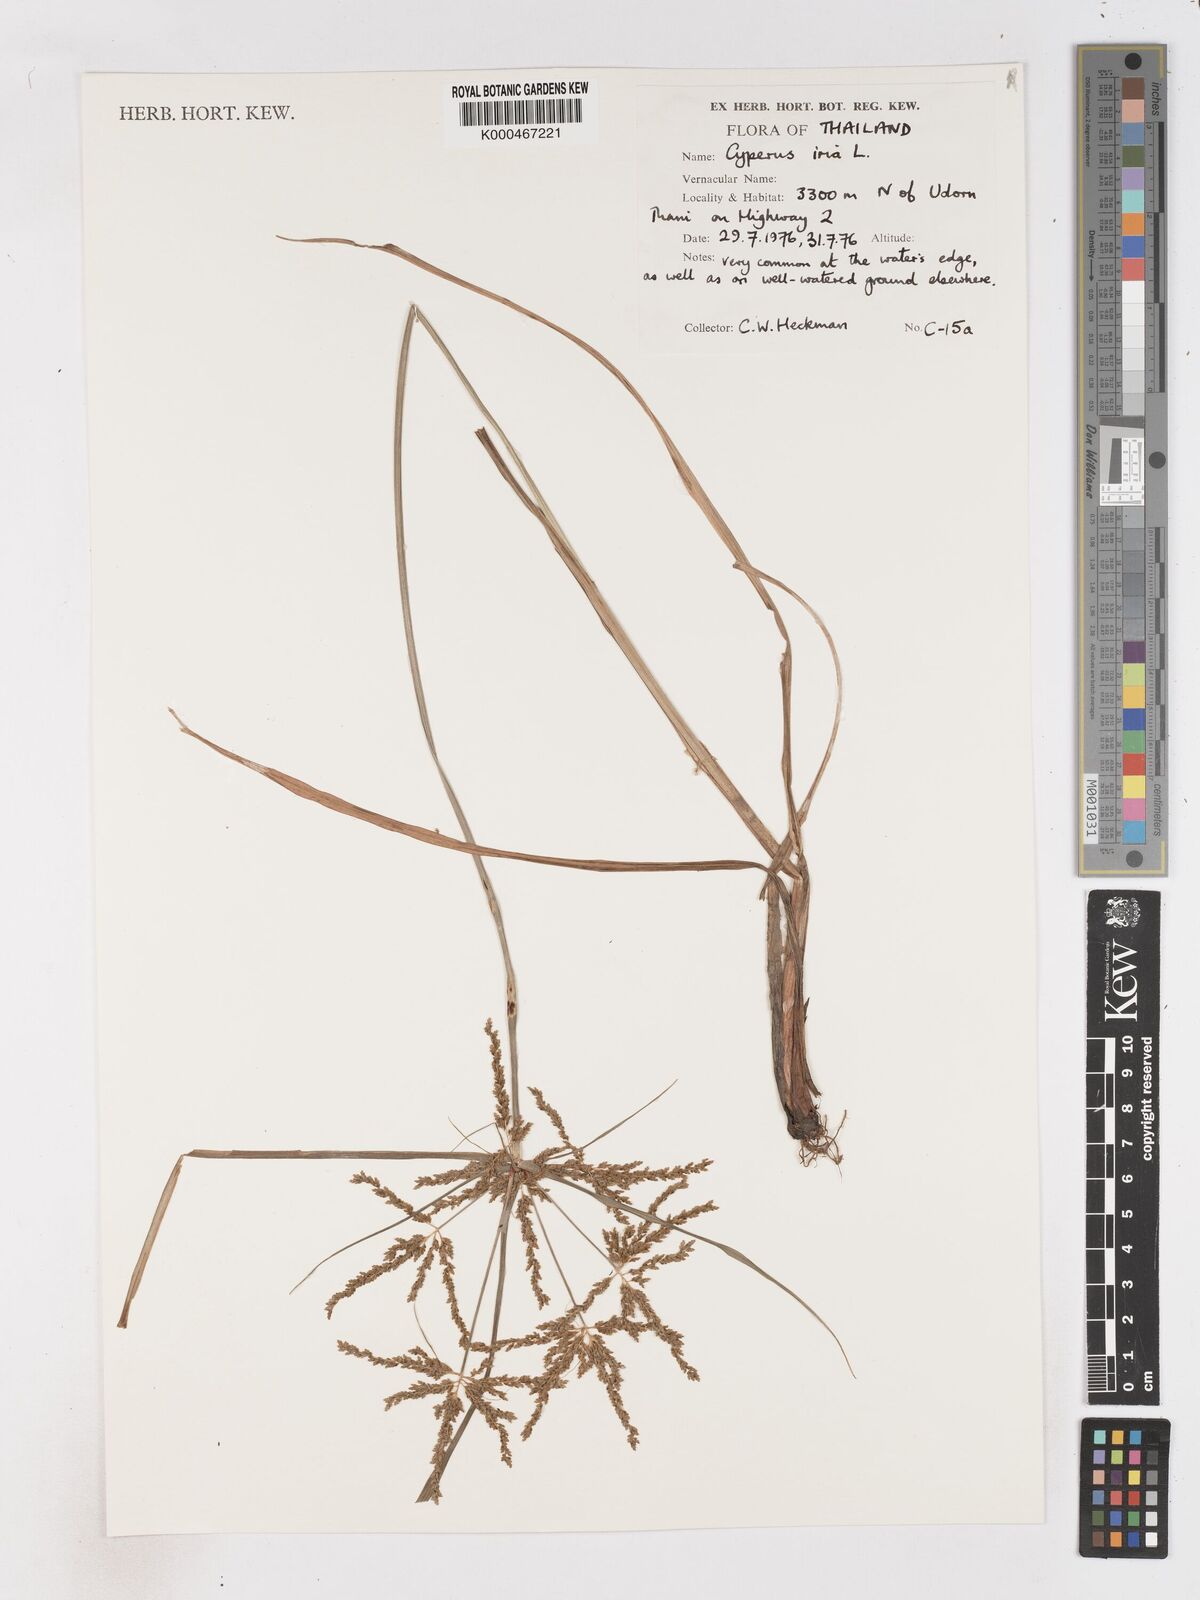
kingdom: Plantae
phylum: Tracheophyta
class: Liliopsida
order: Poales
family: Cyperaceae
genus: Cyperus
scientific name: Cyperus iria
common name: Ricefield flatsedge
